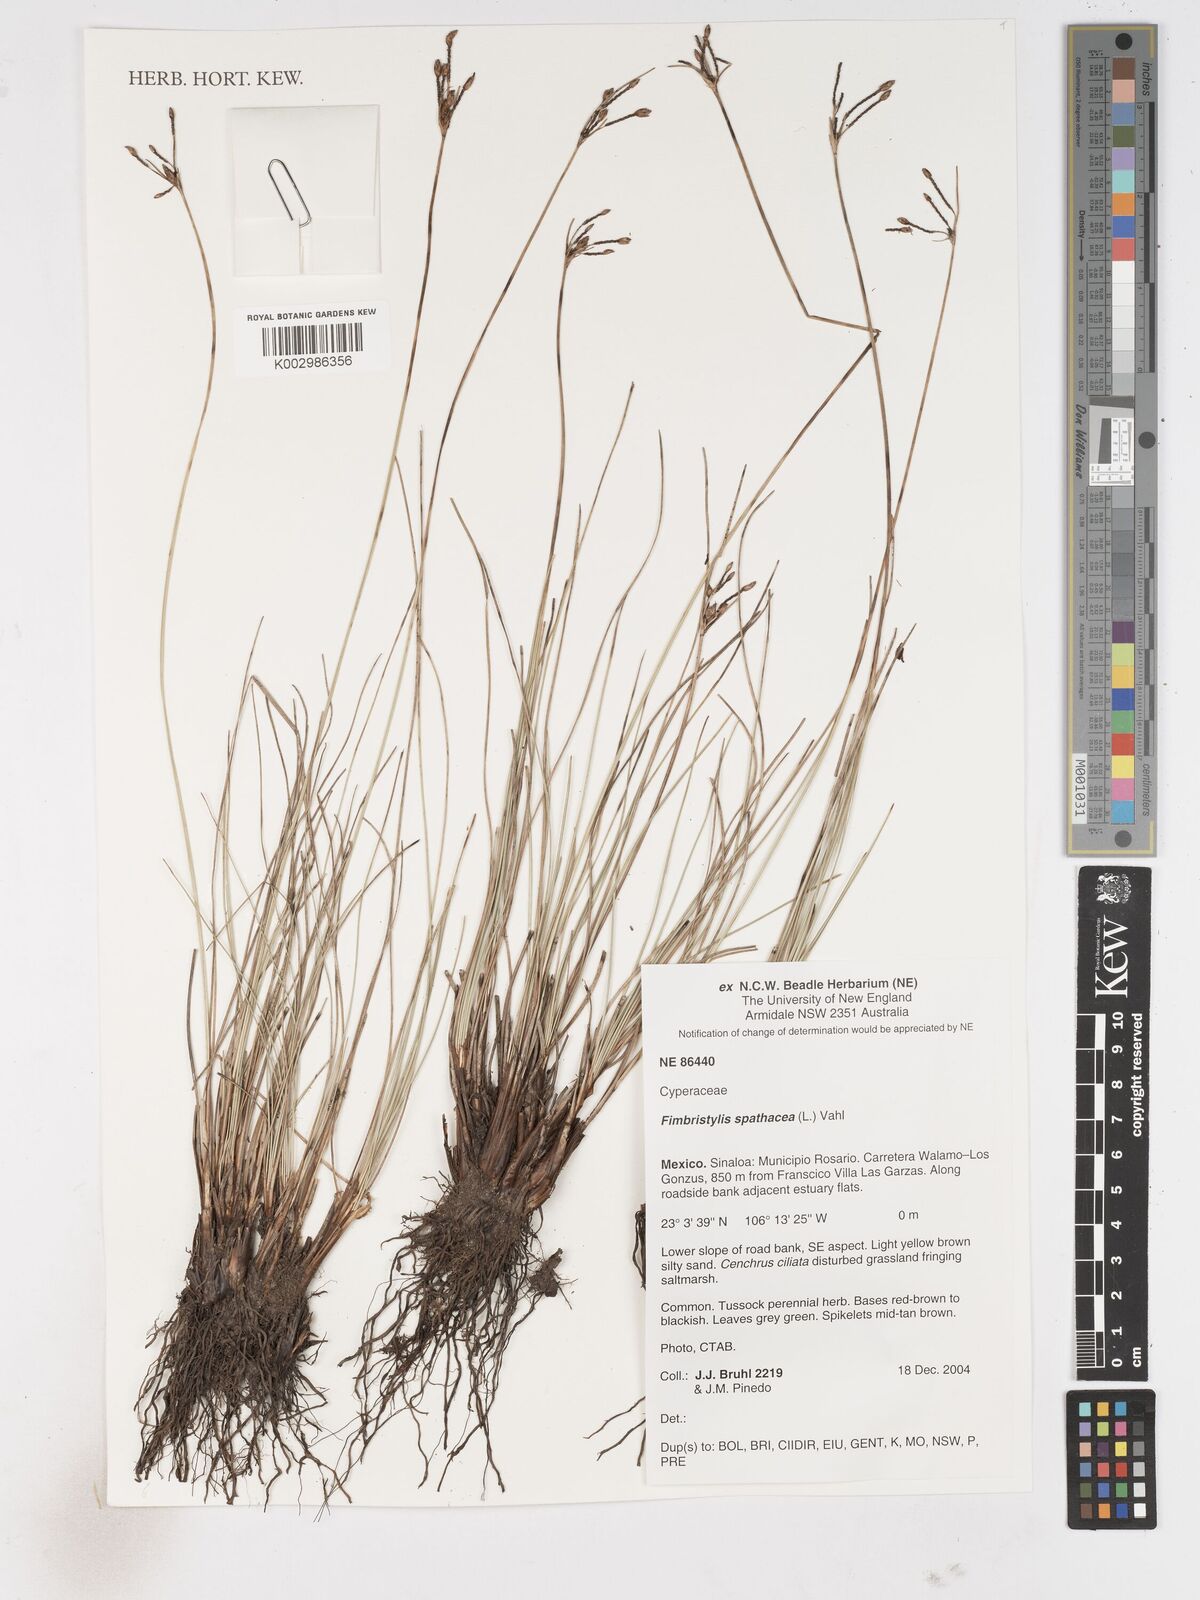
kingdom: Plantae
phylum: Tracheophyta
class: Liliopsida
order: Poales
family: Cyperaceae
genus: Fimbristylis
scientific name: Fimbristylis cymosa
